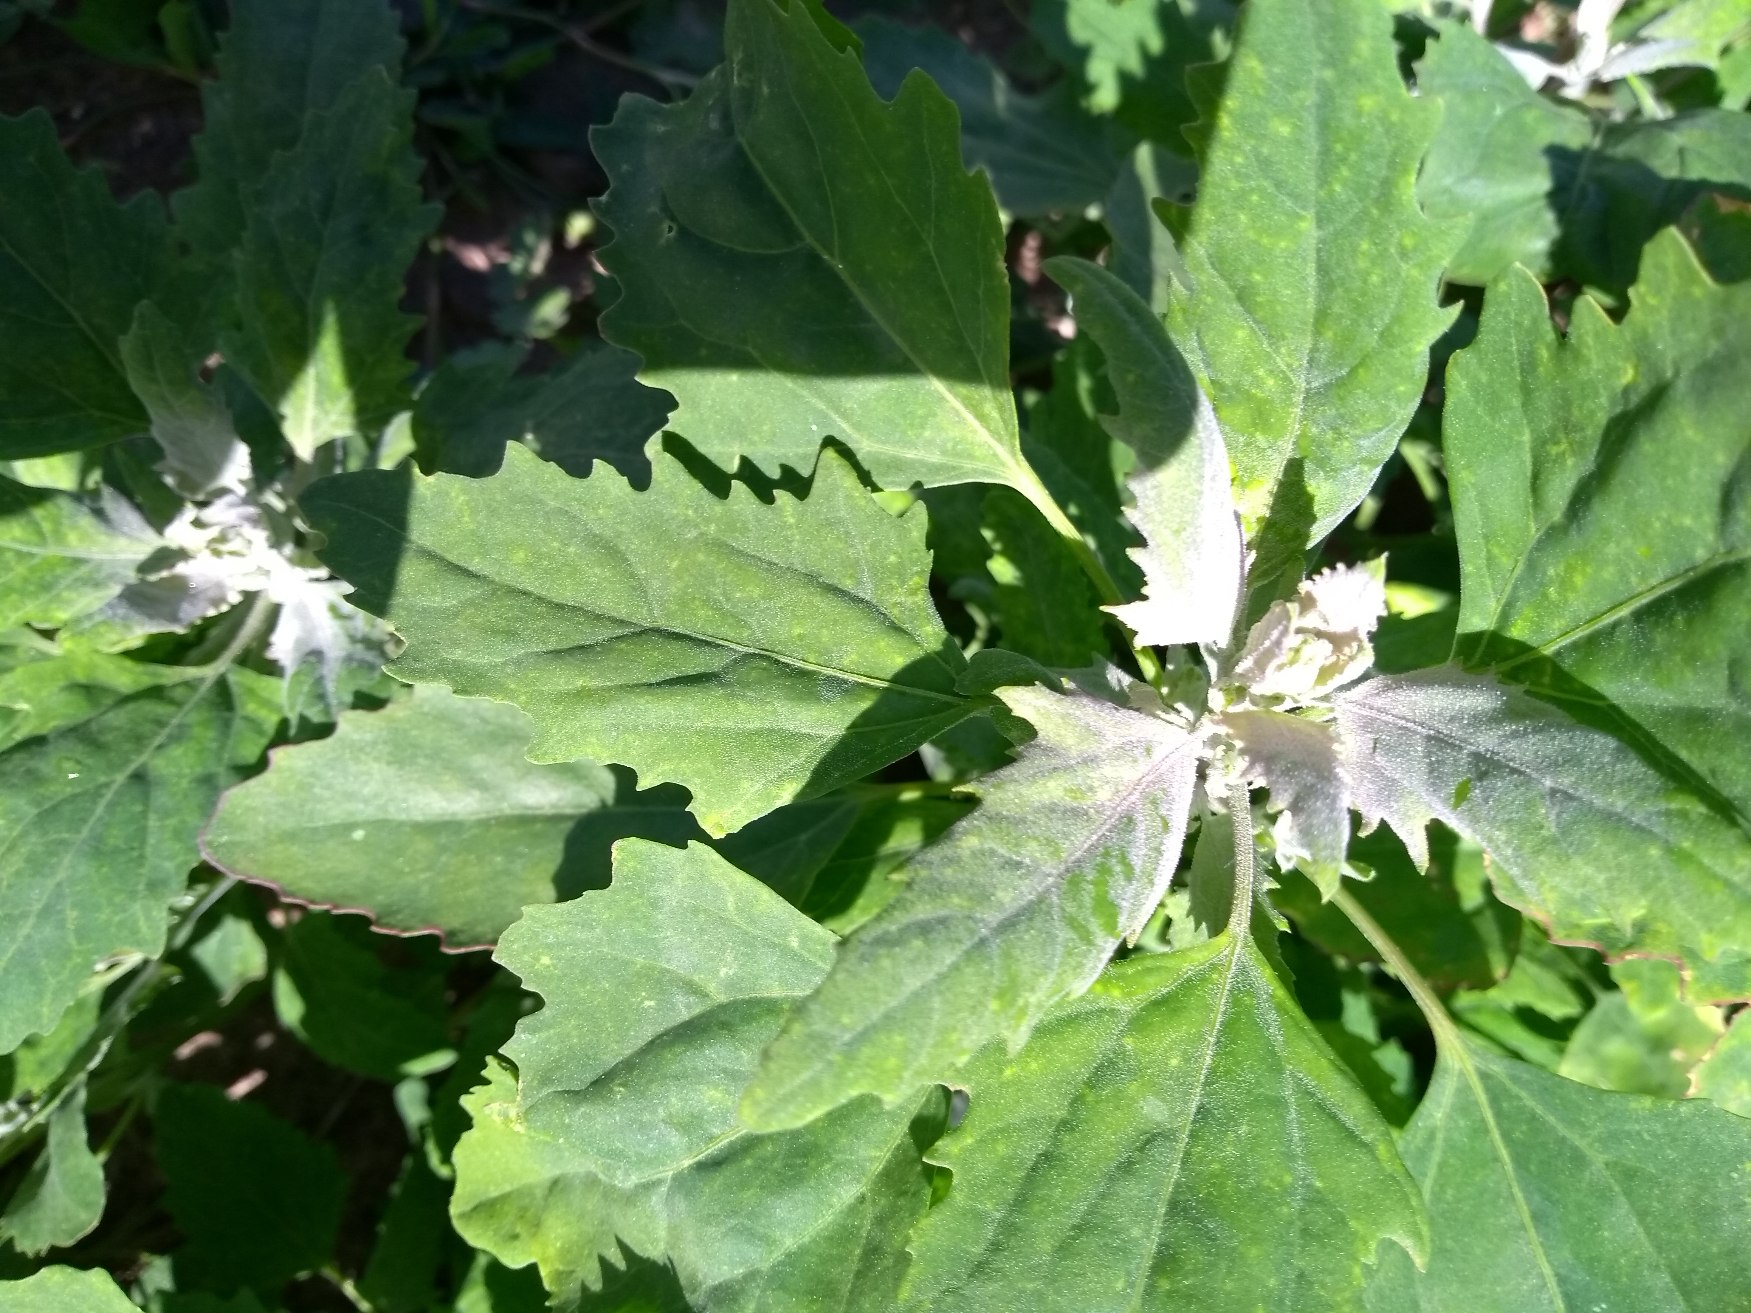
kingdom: Plantae
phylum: Tracheophyta
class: Magnoliopsida
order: Caryophyllales
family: Amaranthaceae
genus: Chenopodium
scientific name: Chenopodium album
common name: Hvidmelet gåsefod
